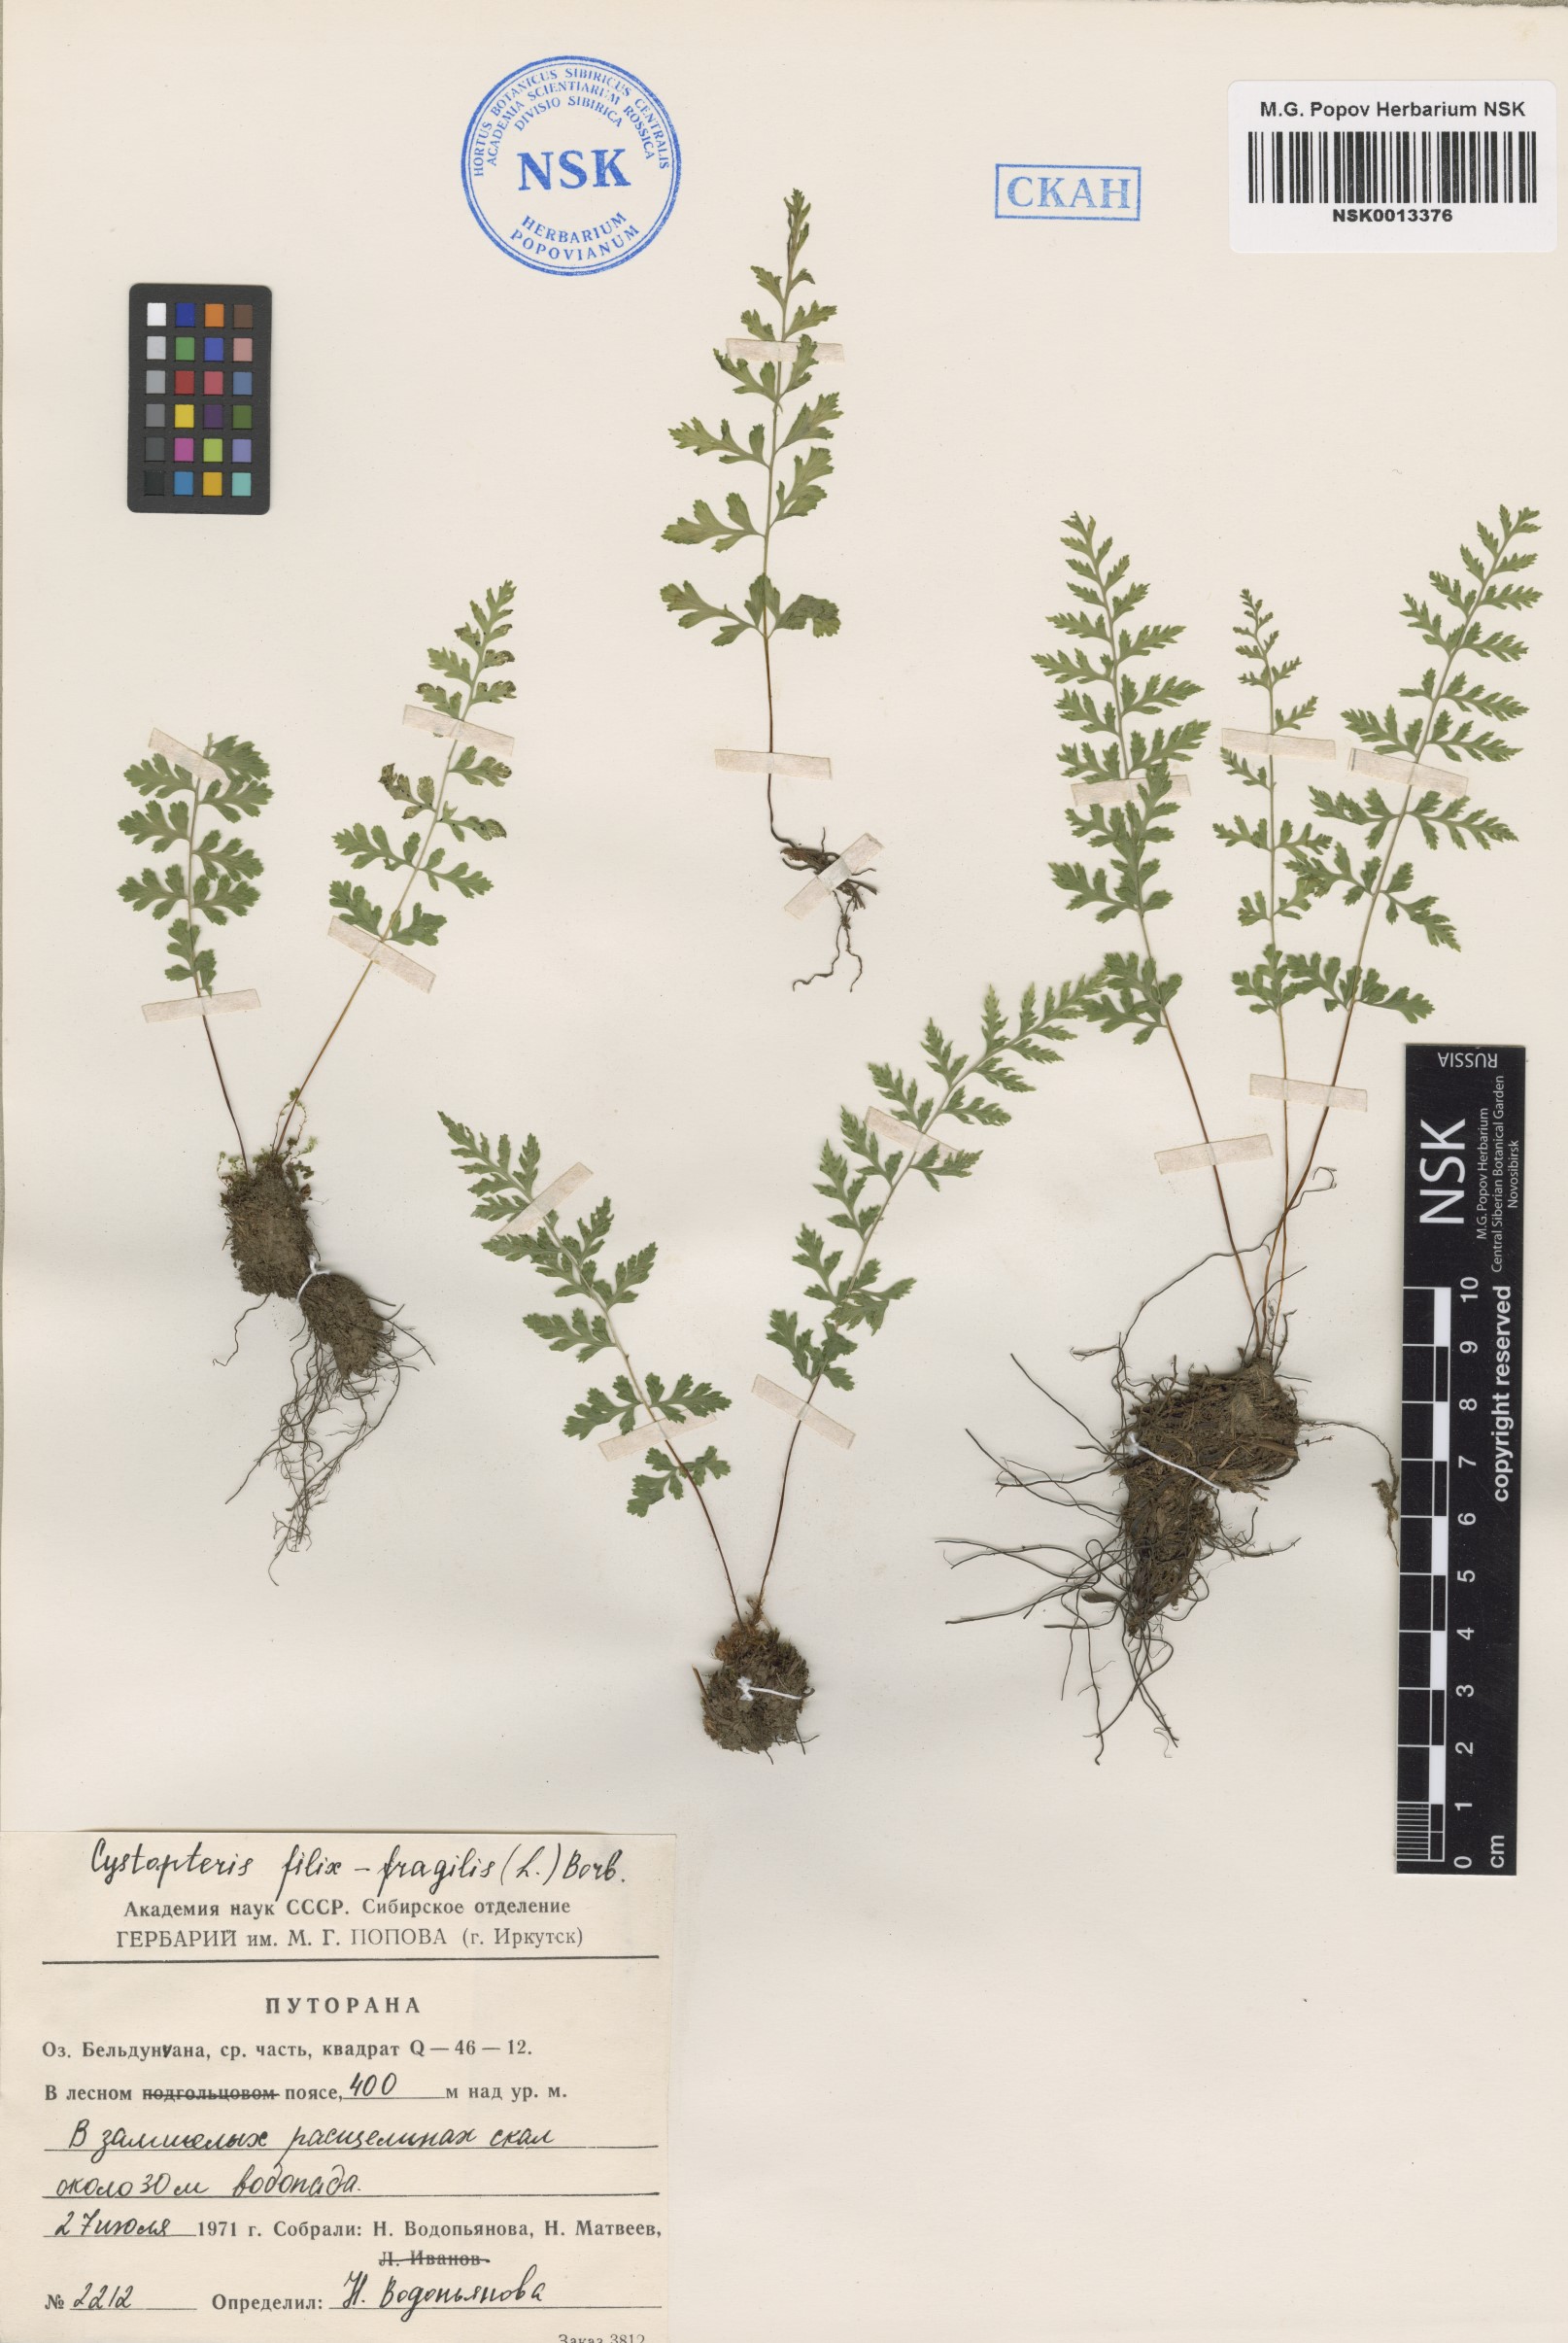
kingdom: Plantae
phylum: Tracheophyta
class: Polypodiopsida
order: Polypodiales
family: Cystopteridaceae
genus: Cystopteris
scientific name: Cystopteris fragilis
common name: Brittle bladder fern
